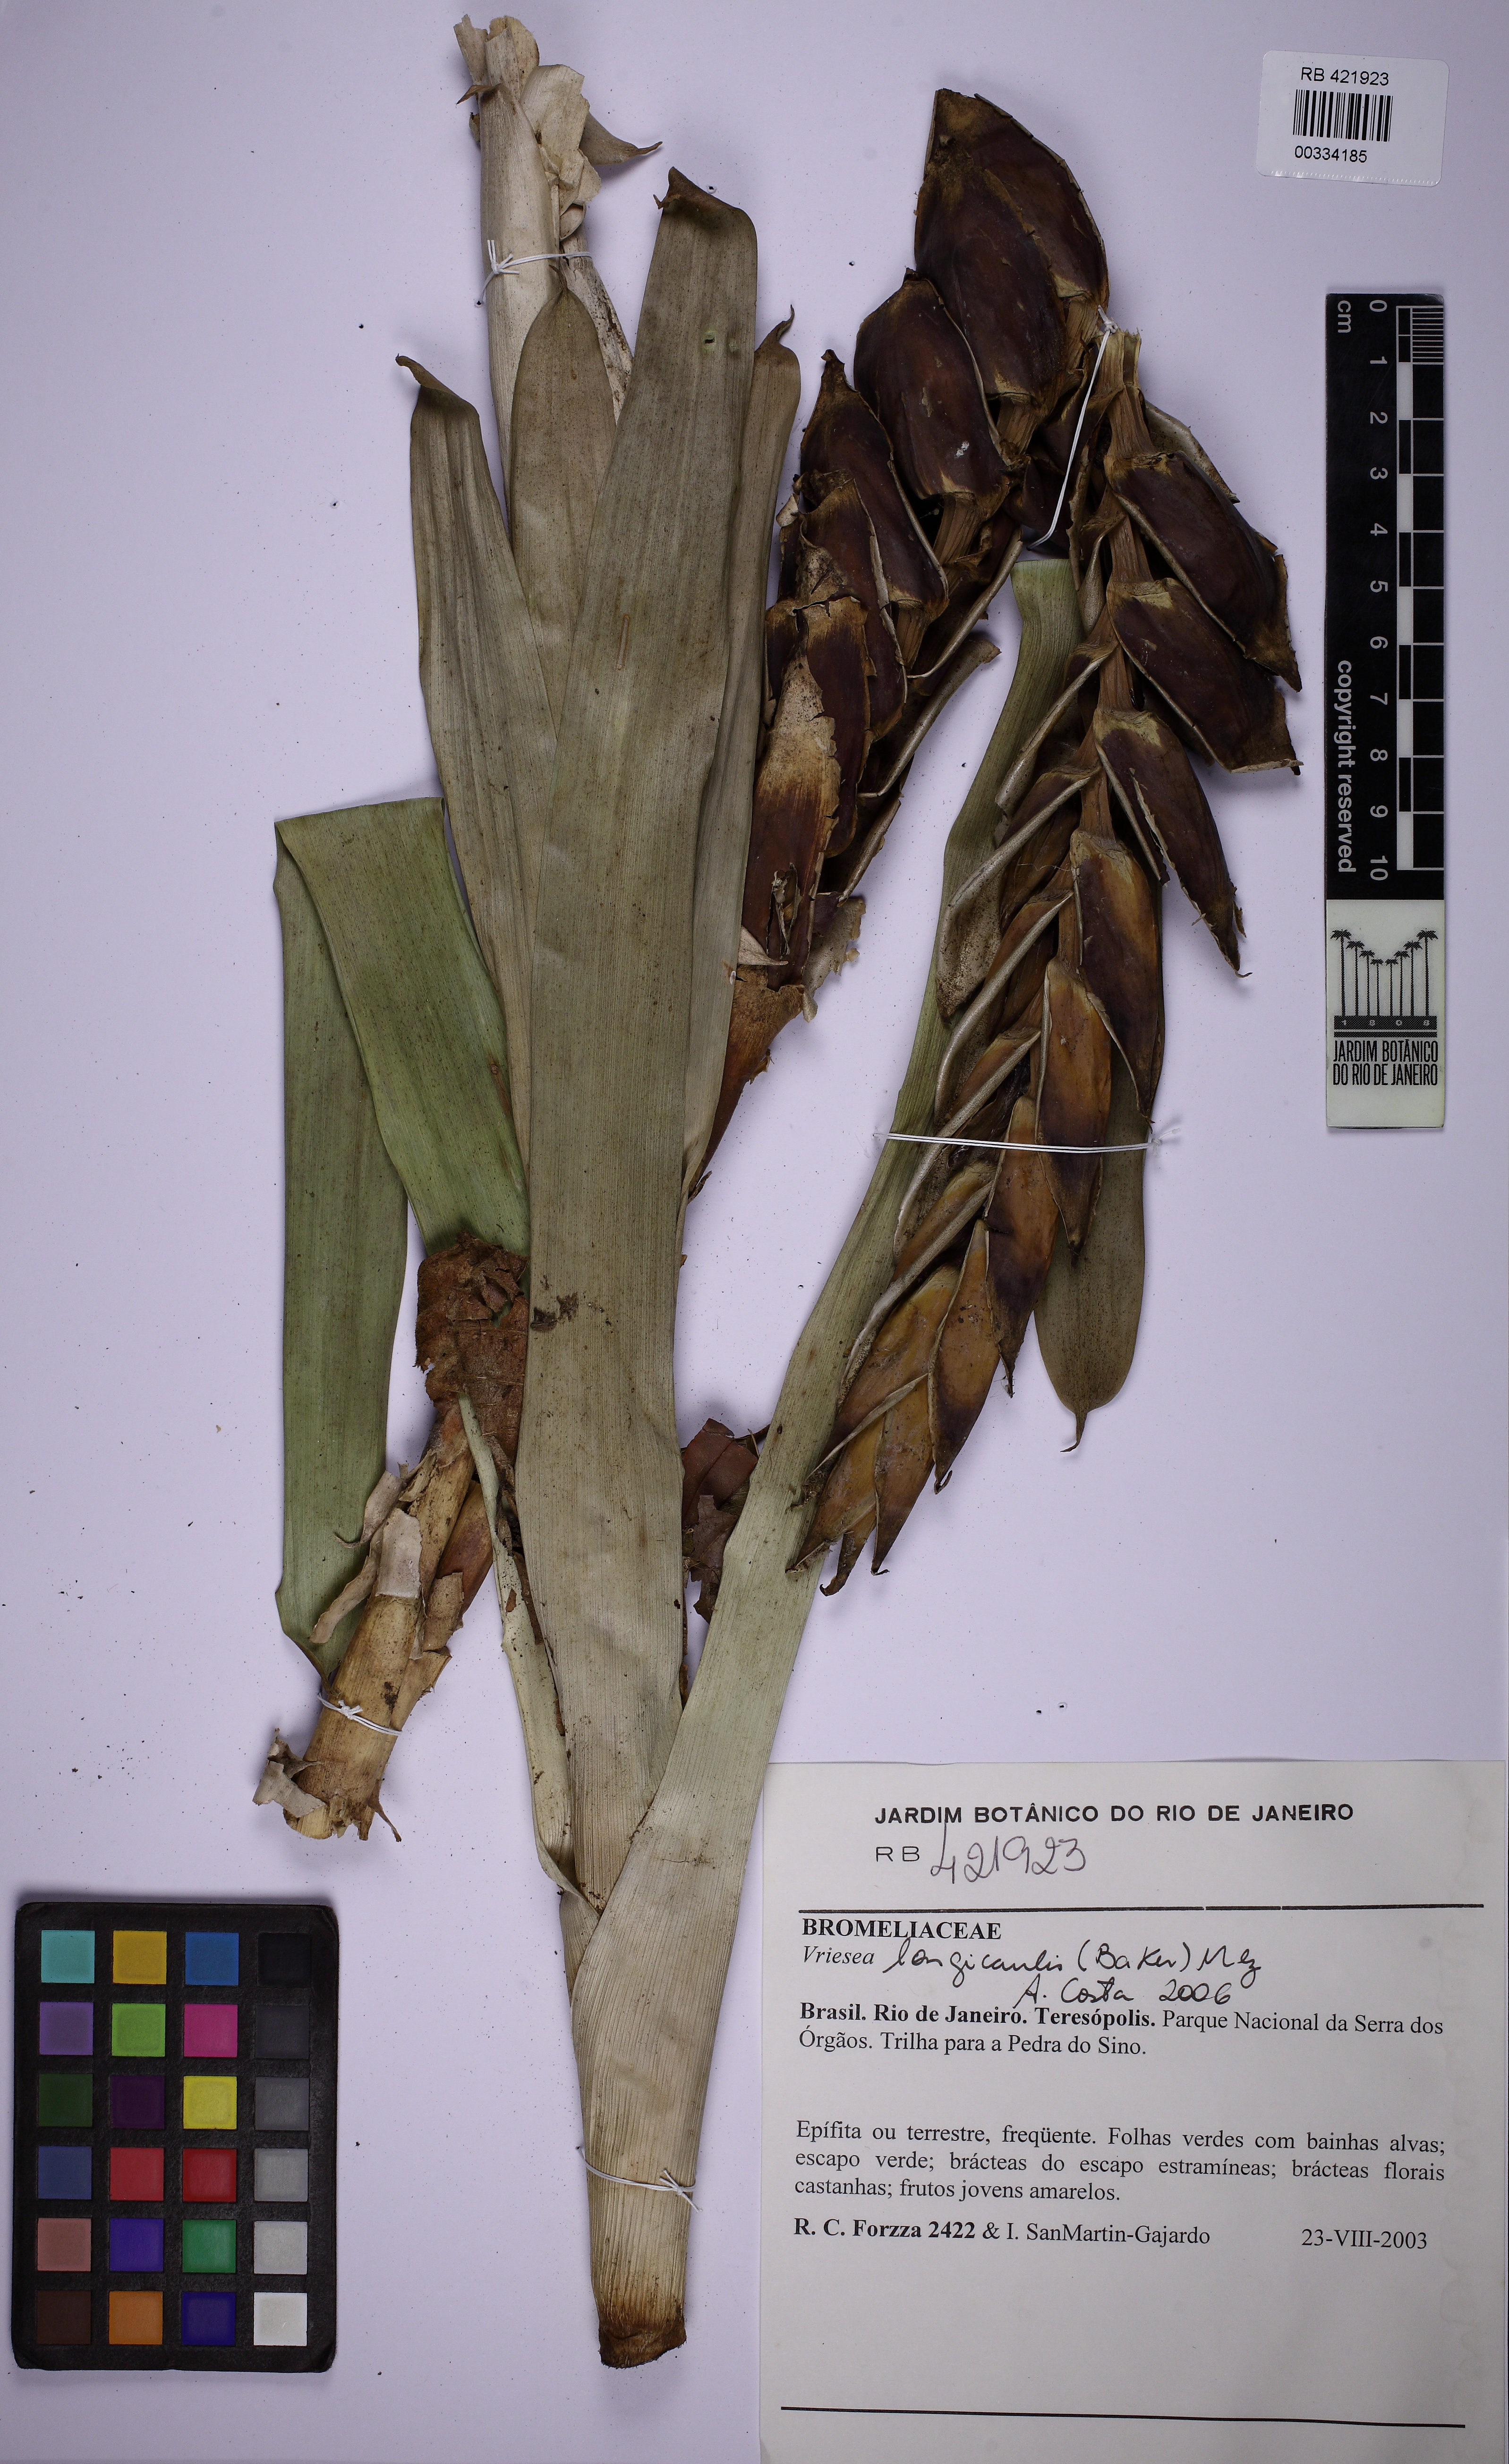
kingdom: Plantae
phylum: Tracheophyta
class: Liliopsida
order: Poales
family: Bromeliaceae
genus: Vriesea
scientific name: Vriesea longicaulis
